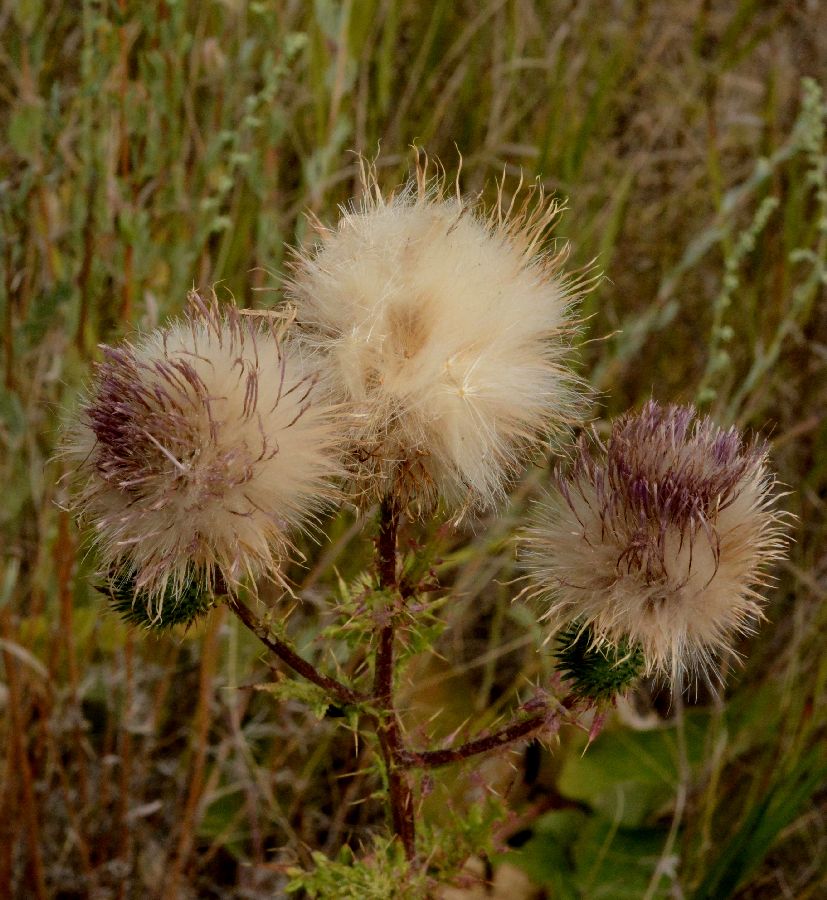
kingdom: Plantae
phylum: Tracheophyta
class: Magnoliopsida
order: Asterales
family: Asteraceae
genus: Cirsium
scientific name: Cirsium vulgare
